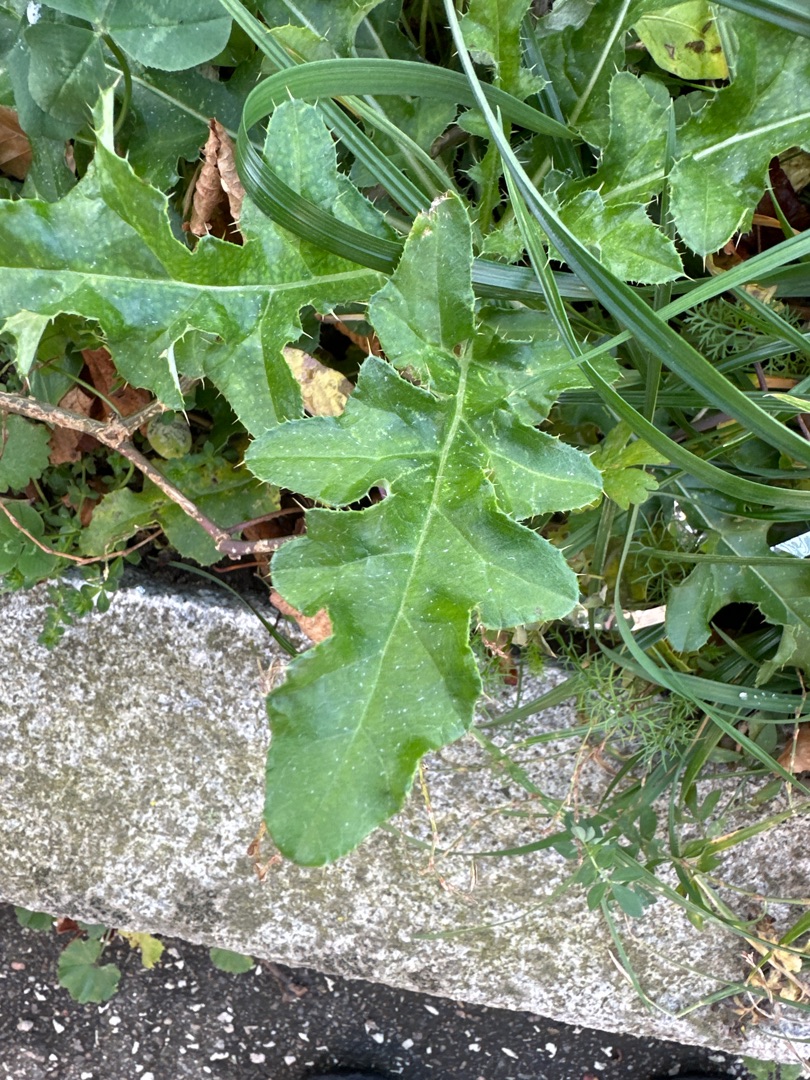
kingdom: Plantae
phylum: Tracheophyta
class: Magnoliopsida
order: Asterales
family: Asteraceae
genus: Cirsium
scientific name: Cirsium arvense
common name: Ager-tidsel
